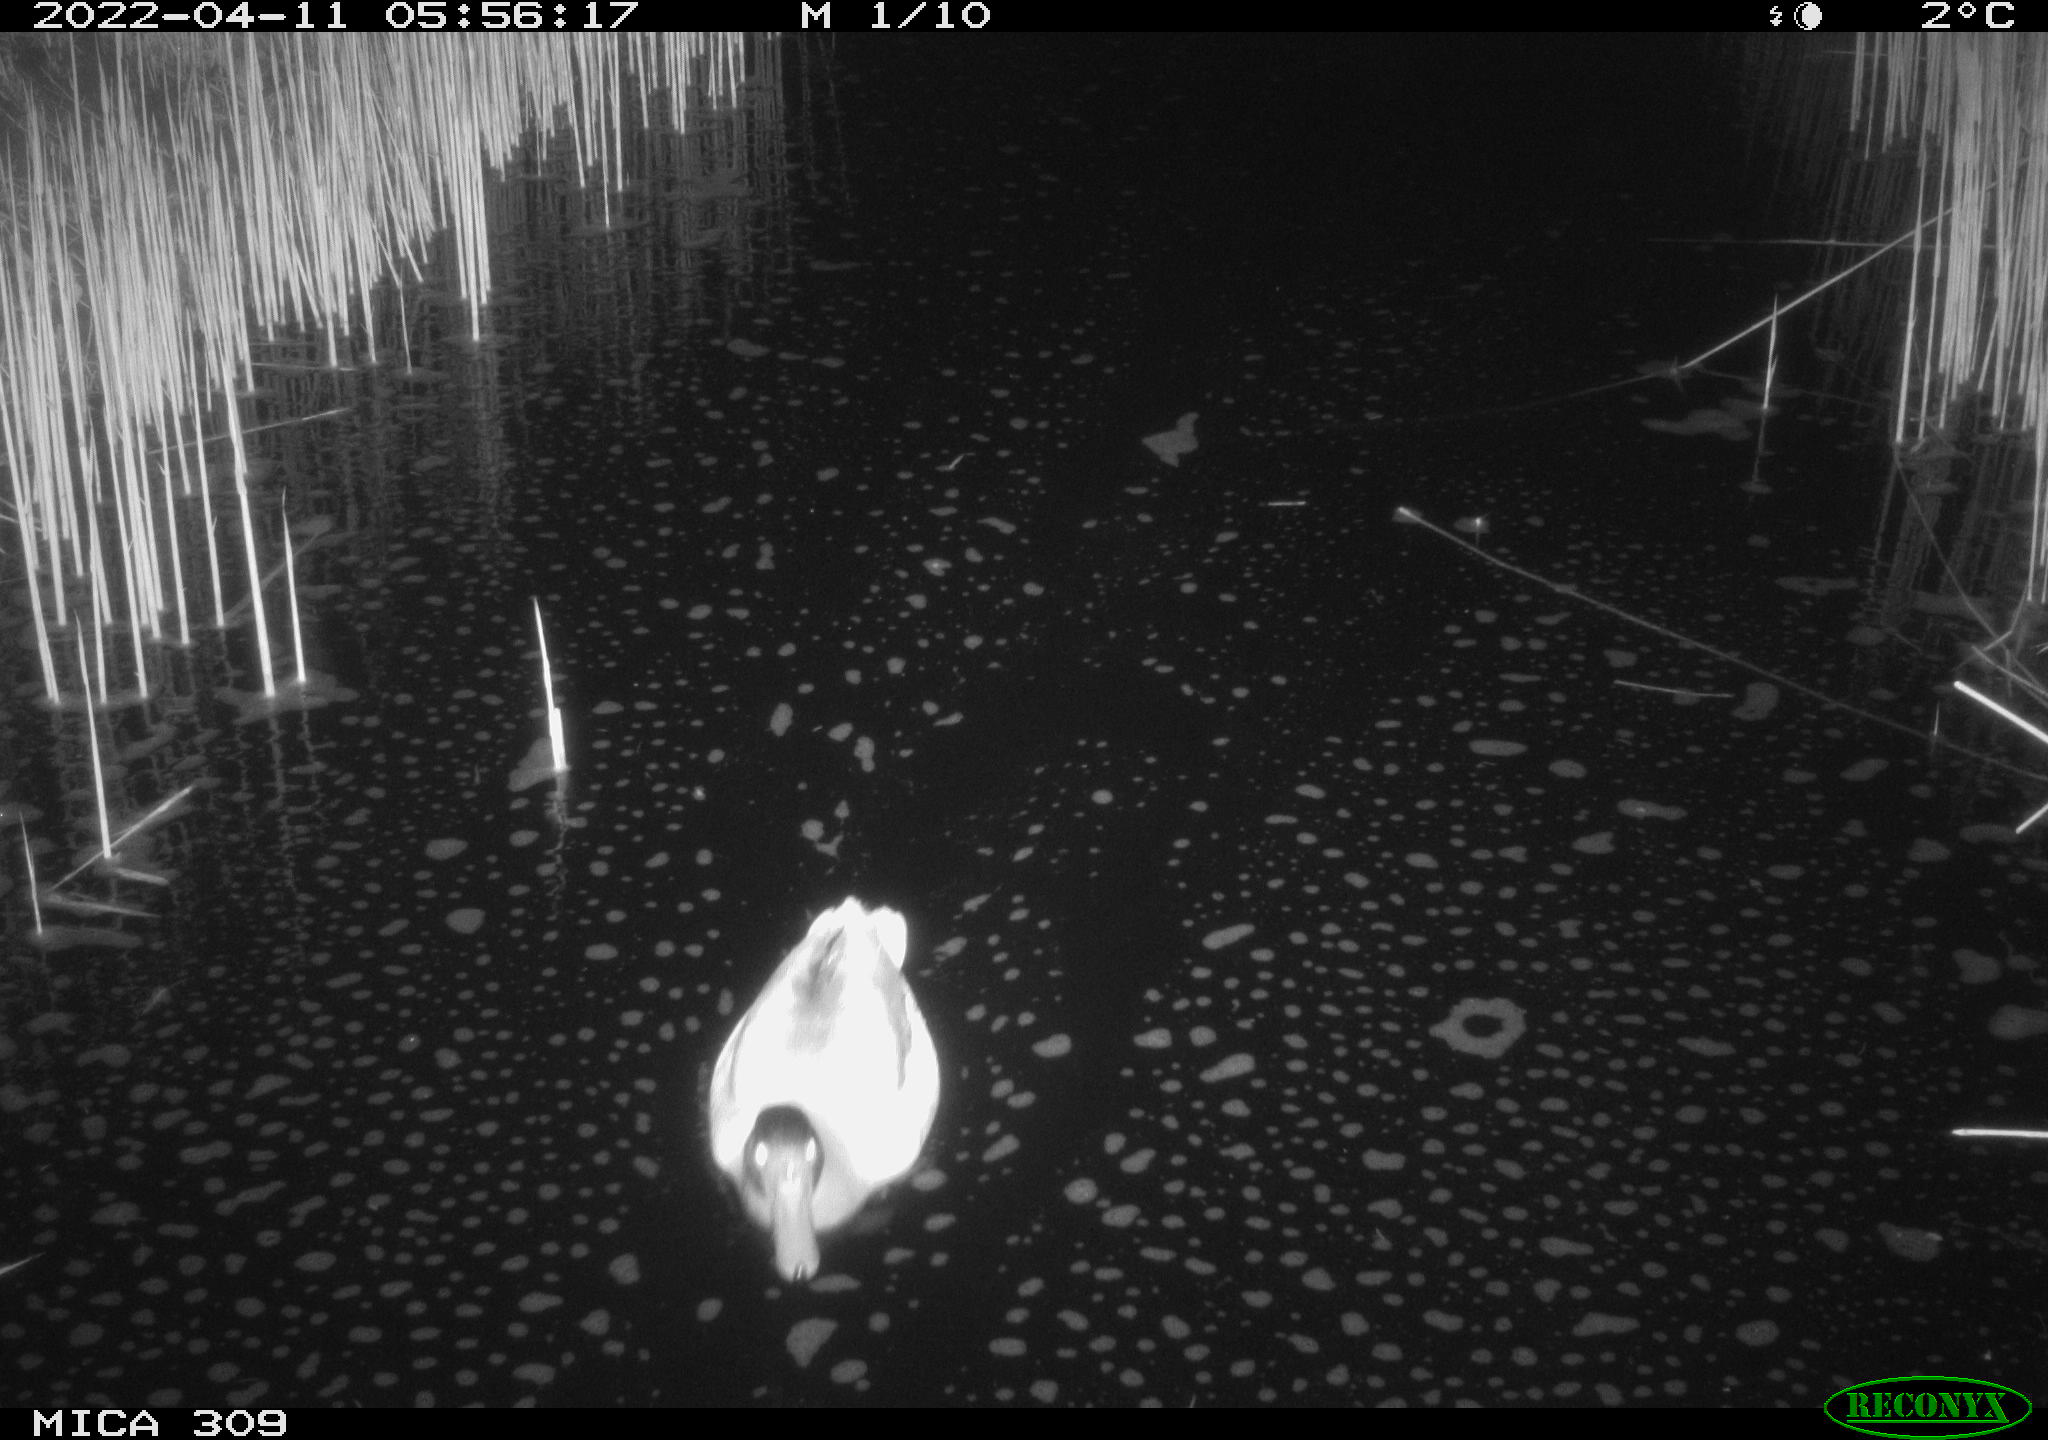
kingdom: Animalia
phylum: Chordata
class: Aves
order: Anseriformes
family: Anatidae
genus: Anas
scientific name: Anas platyrhynchos
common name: Mallard
